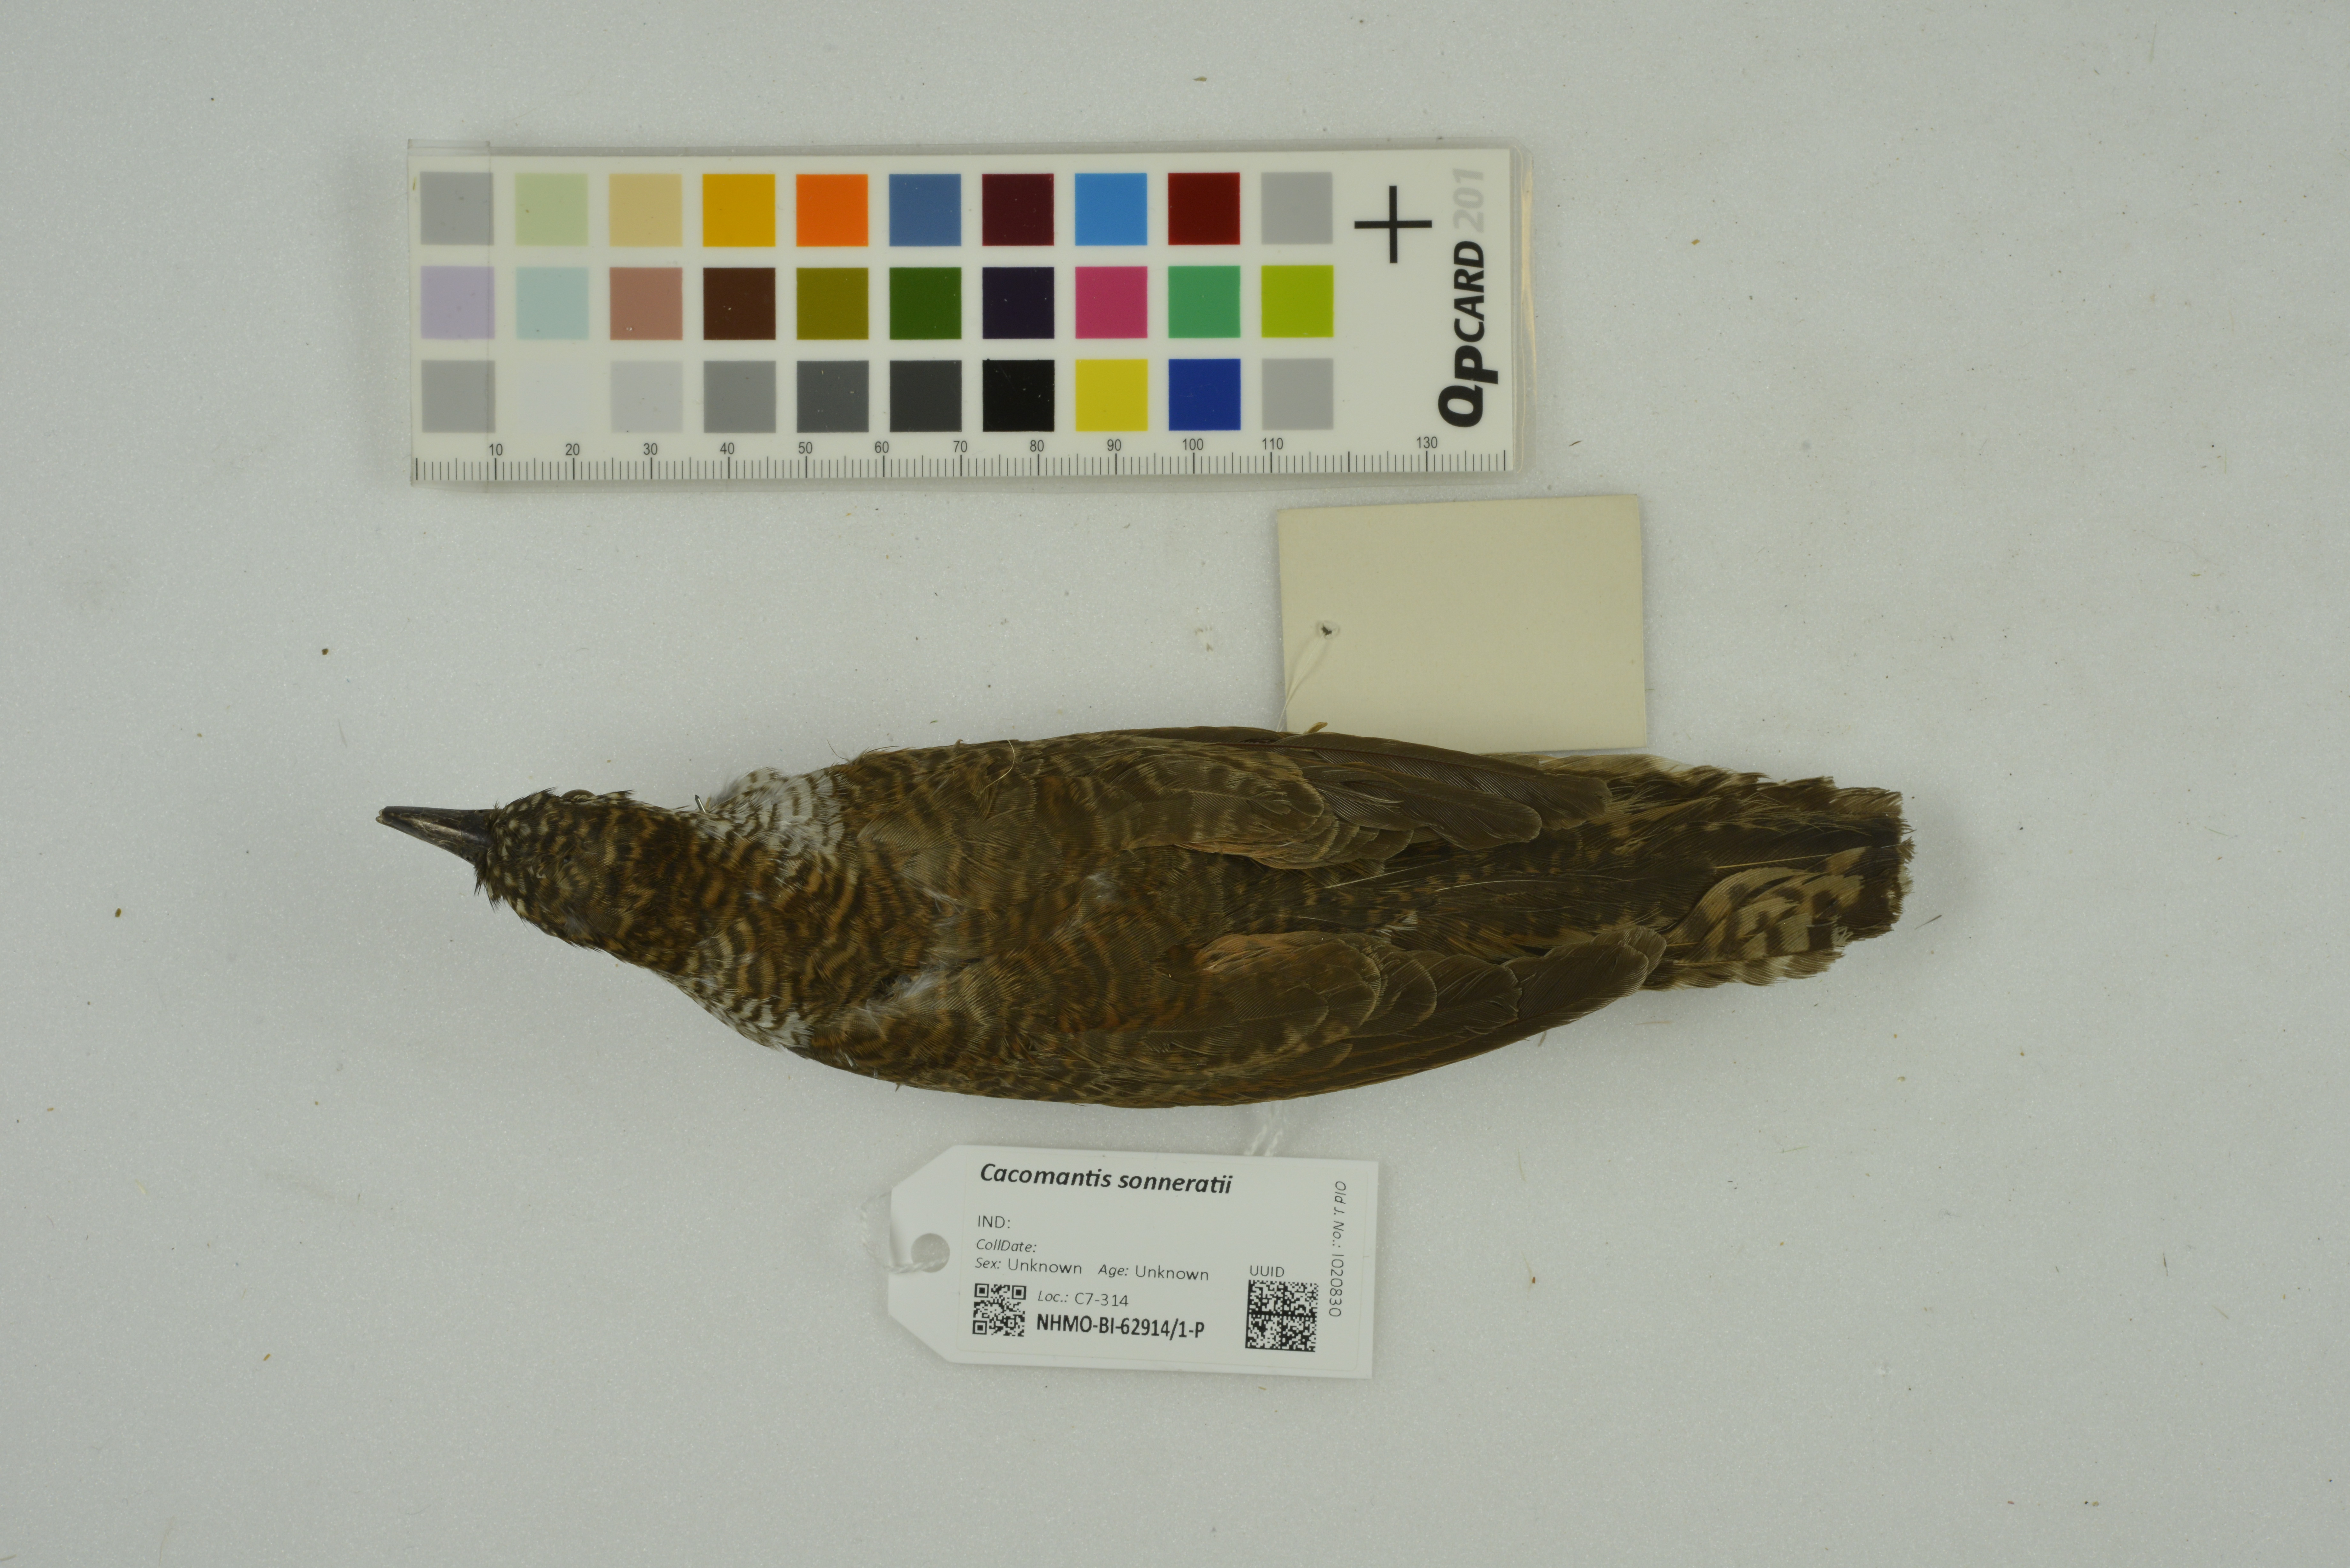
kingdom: Animalia
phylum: Chordata
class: Aves
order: Cuculiformes
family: Cuculidae
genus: Cacomantis
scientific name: Cacomantis sonneratii
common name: Banded bay cuckoo
